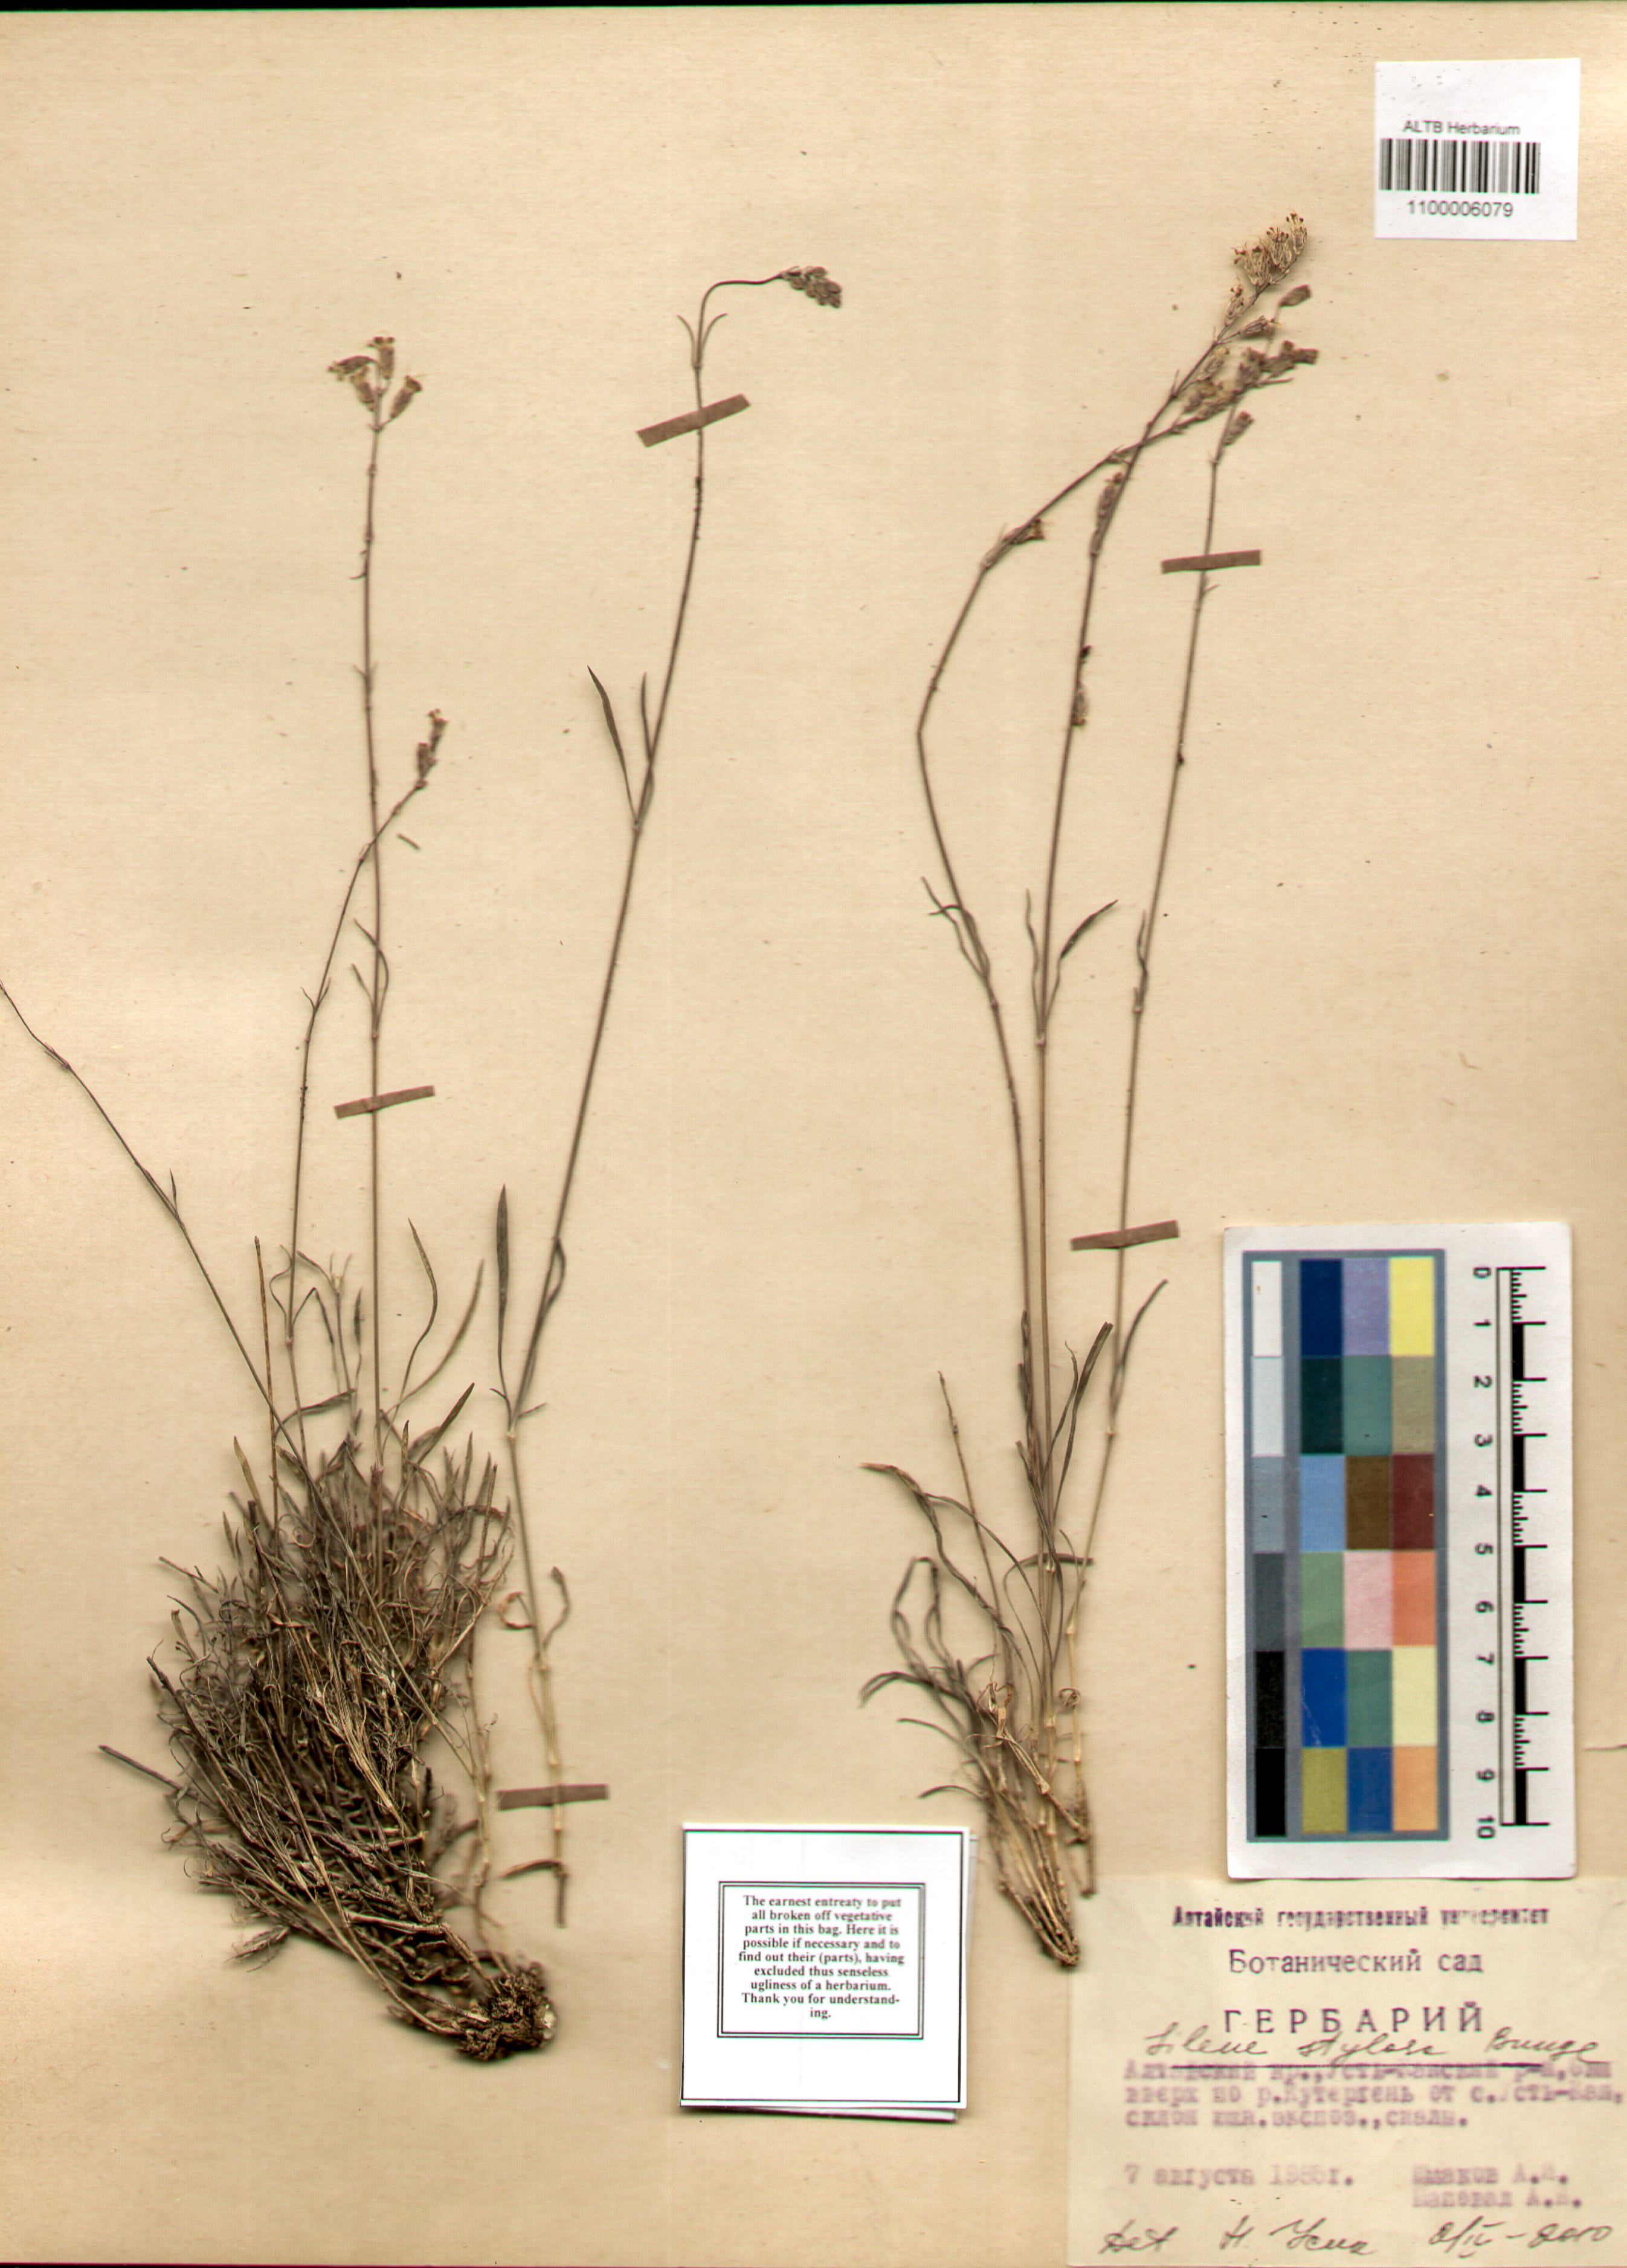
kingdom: Plantae
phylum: Tracheophyta
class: Magnoliopsida
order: Caryophyllales
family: Caryophyllaceae
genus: Silene
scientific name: Silene graminifolia
